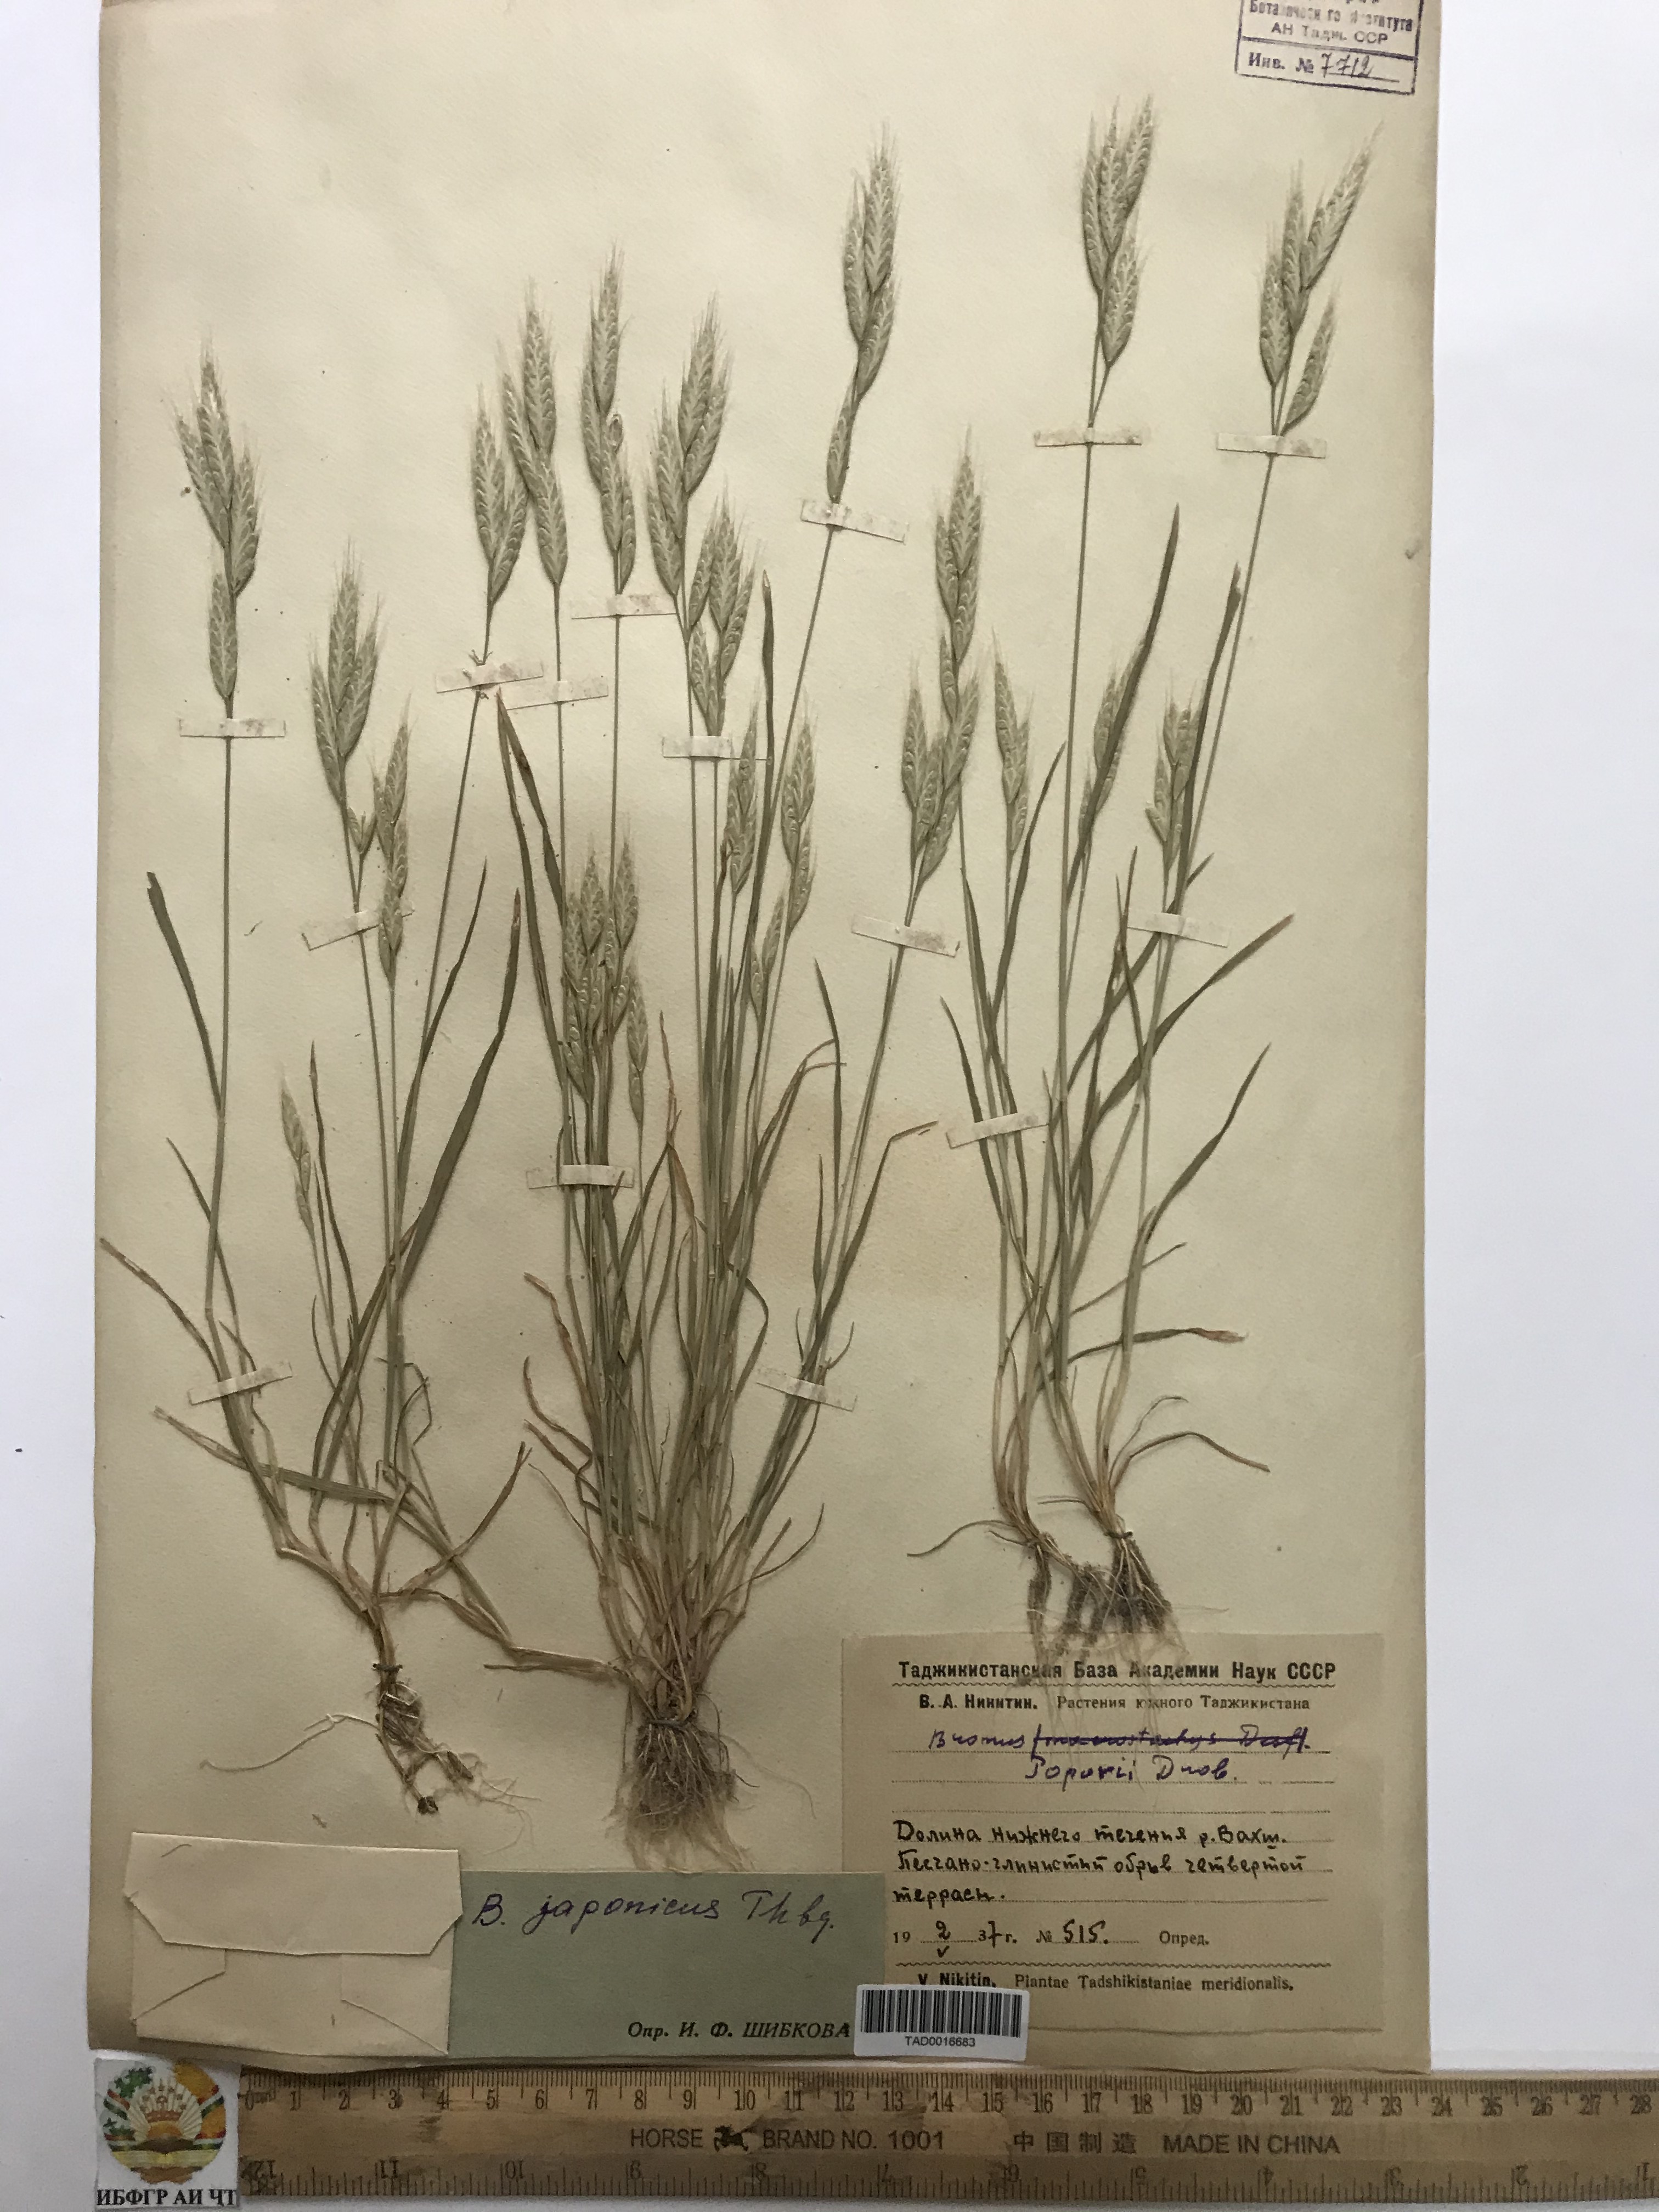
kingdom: Plantae
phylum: Tracheophyta
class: Liliopsida
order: Poales
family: Poaceae
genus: Bromus
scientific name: Bromus japonicus
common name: Japanese brome
